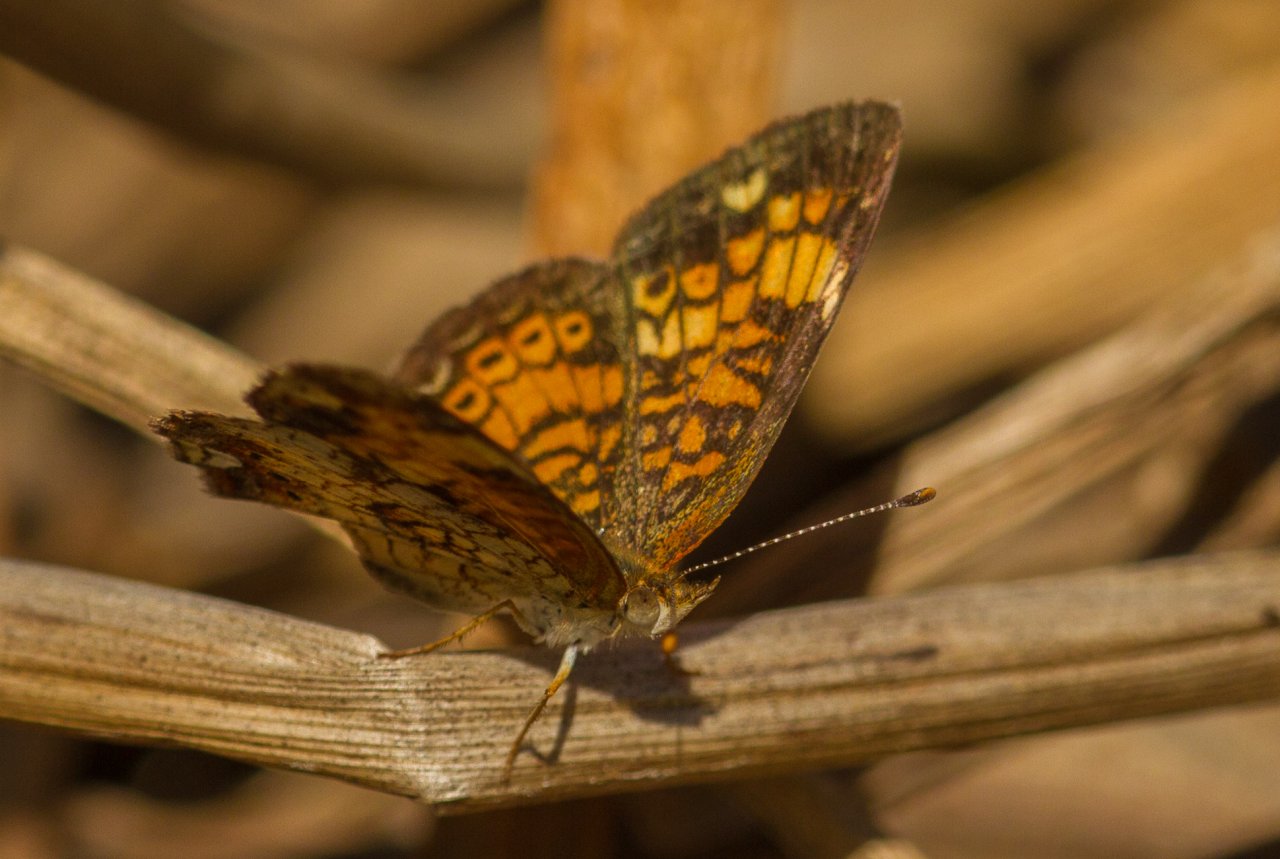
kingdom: Animalia
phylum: Arthropoda
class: Insecta
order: Lepidoptera
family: Nymphalidae
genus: Phyciodes
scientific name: Phyciodes tharos
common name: Pearl Crescent
